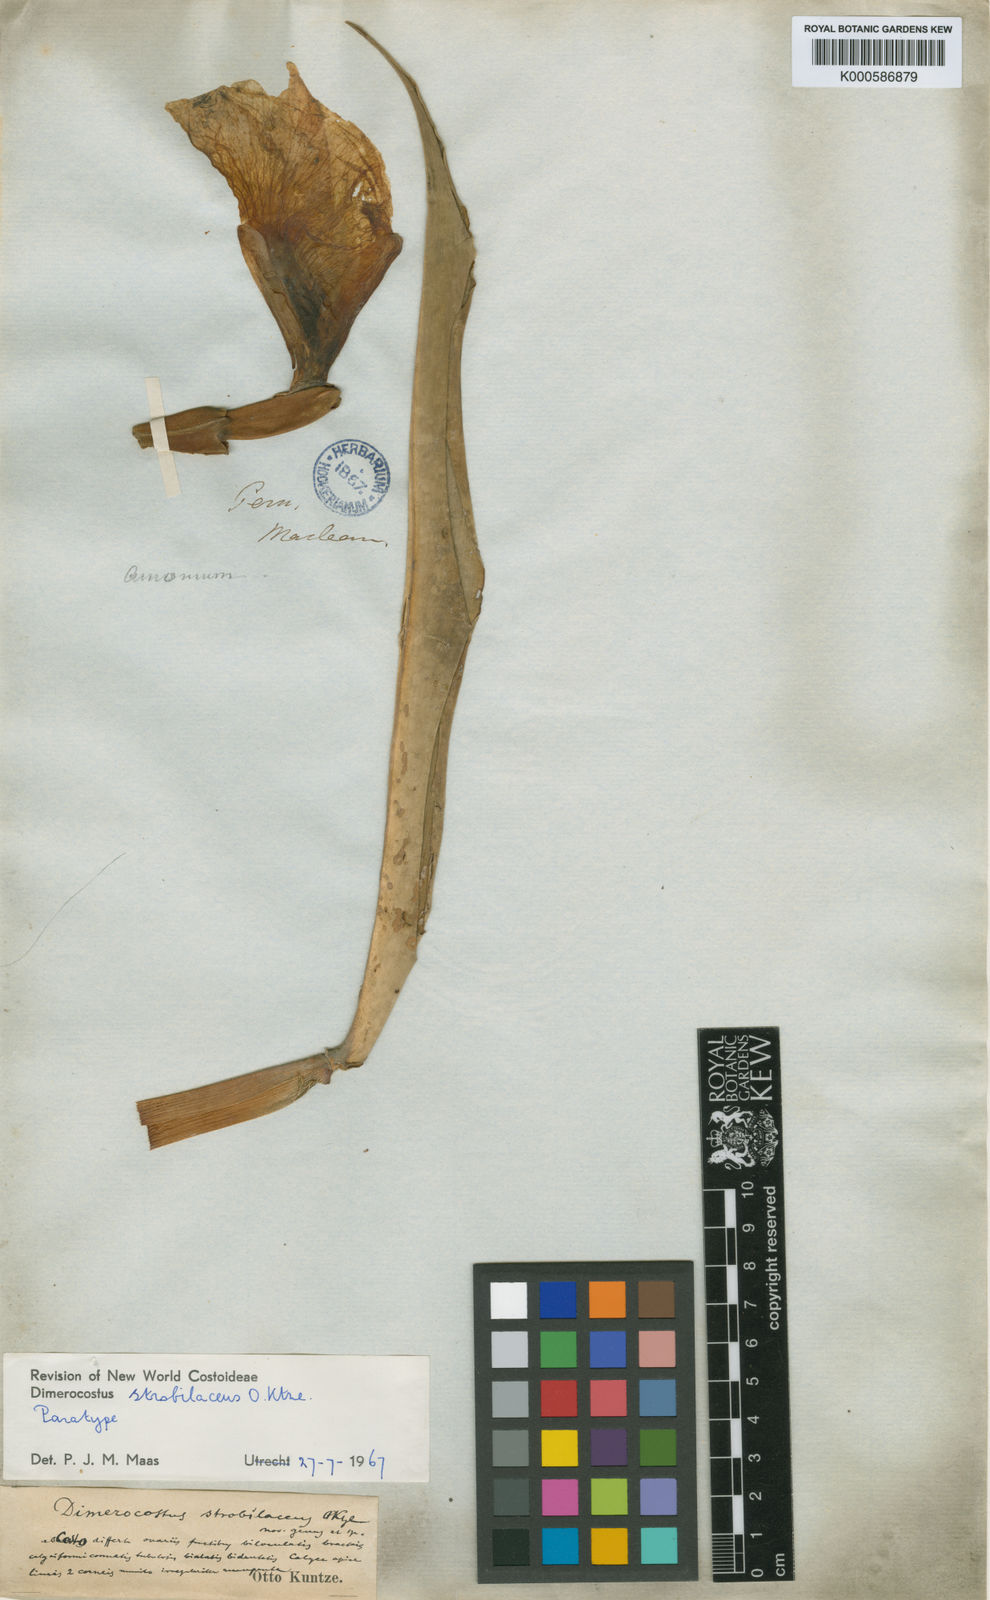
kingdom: Plantae
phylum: Tracheophyta
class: Liliopsida
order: Zingiberales
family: Costaceae
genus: Dimerocostus
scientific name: Dimerocostus strobilaceus
